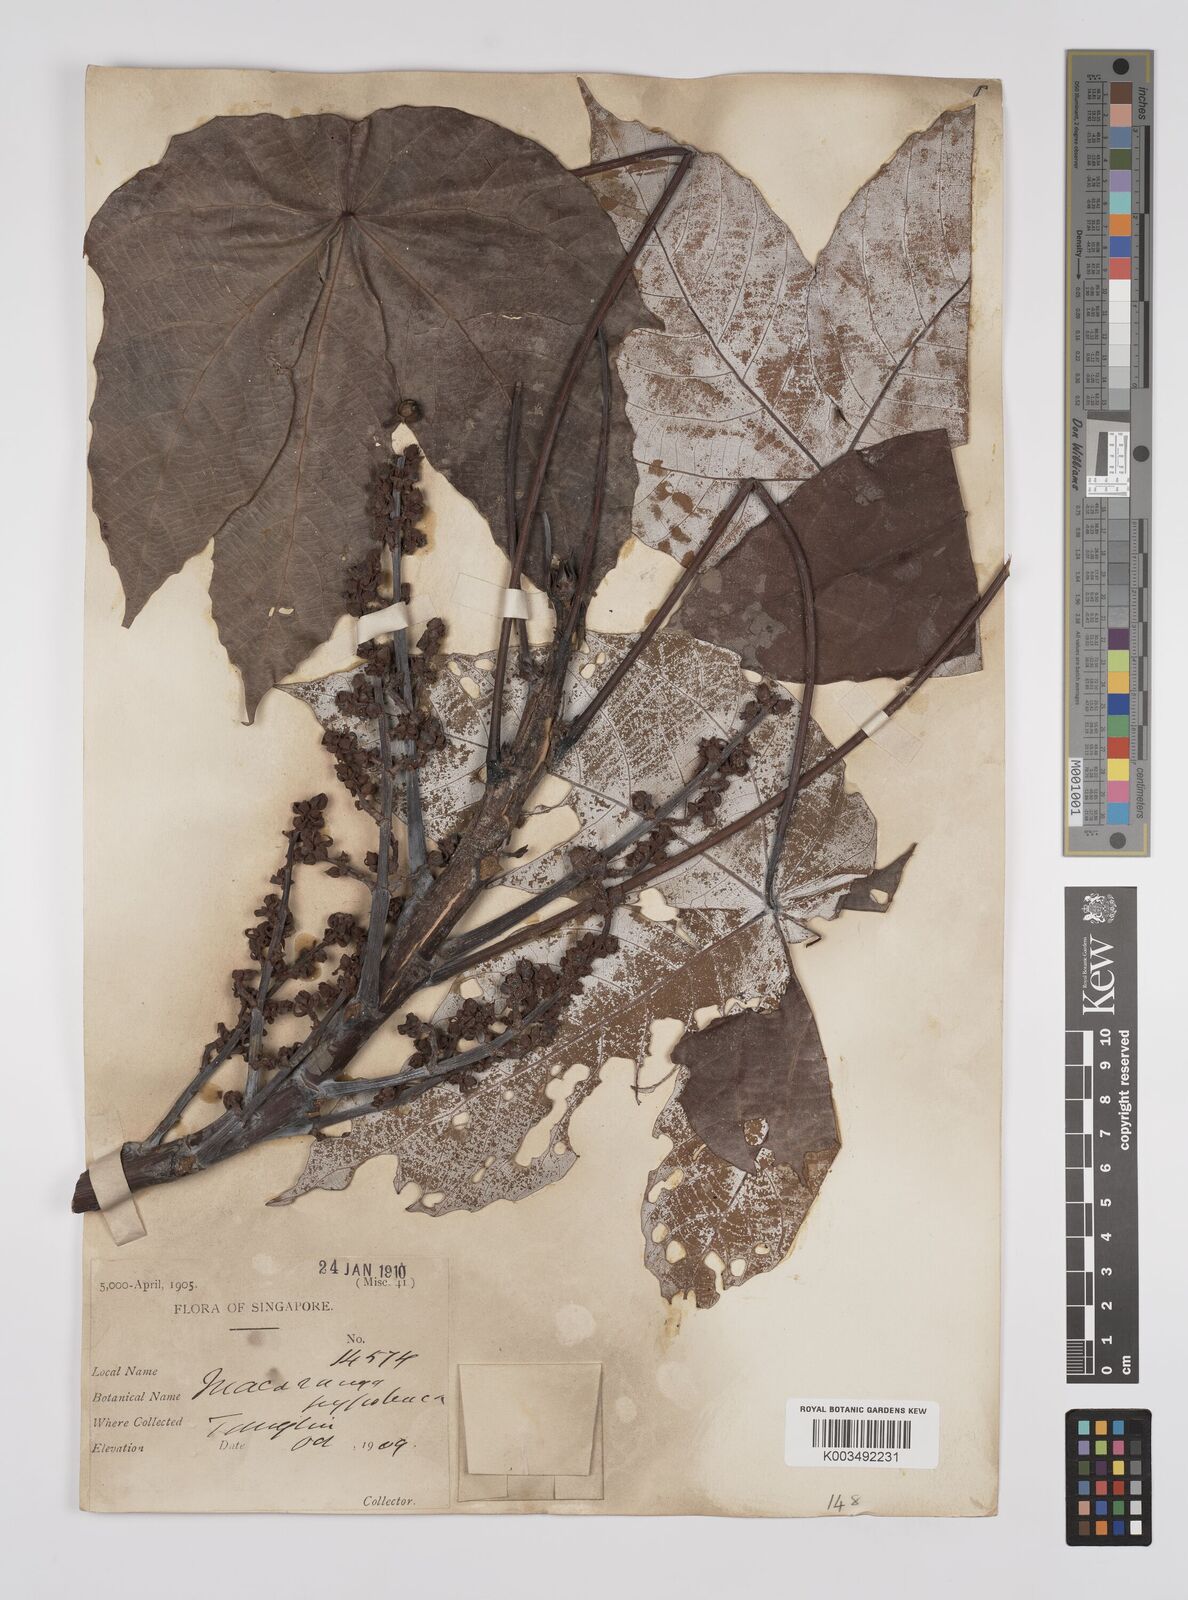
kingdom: Plantae
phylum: Tracheophyta
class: Magnoliopsida
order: Malpighiales
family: Euphorbiaceae
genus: Macaranga
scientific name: Macaranga hypoleuca
